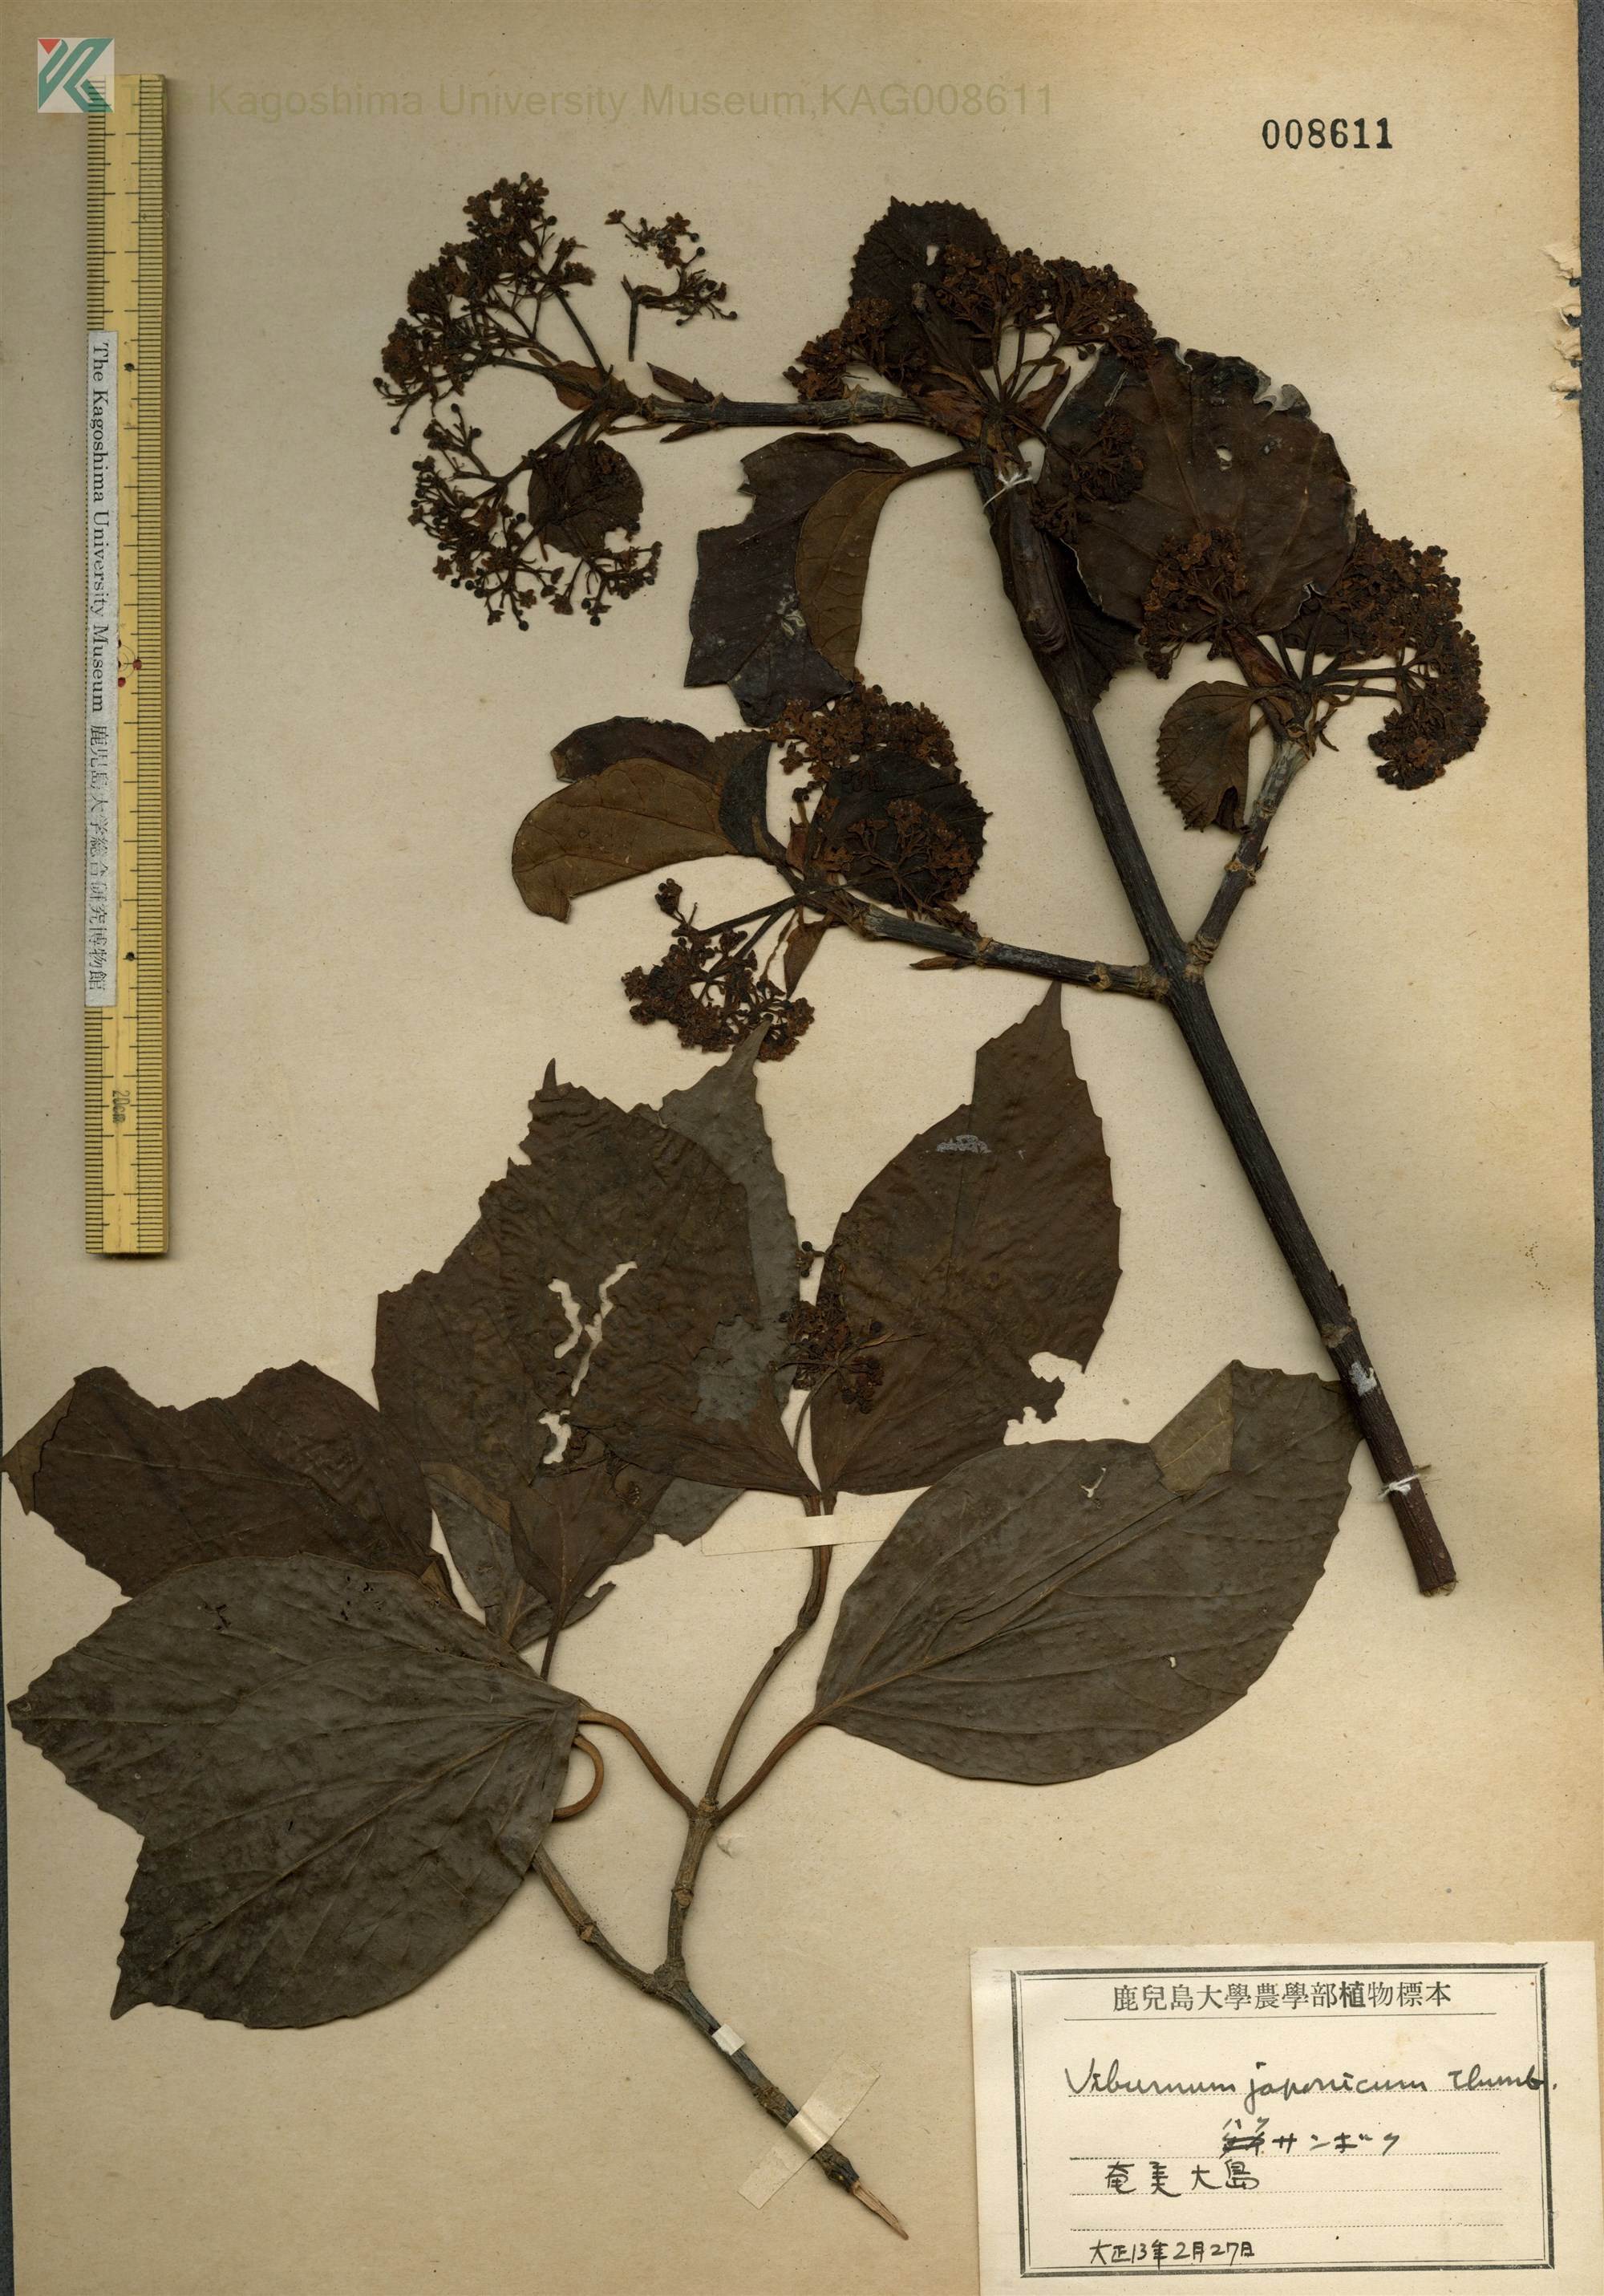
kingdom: Plantae
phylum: Tracheophyta
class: Magnoliopsida
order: Dipsacales
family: Viburnaceae
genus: Viburnum
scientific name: Viburnum japonicum
